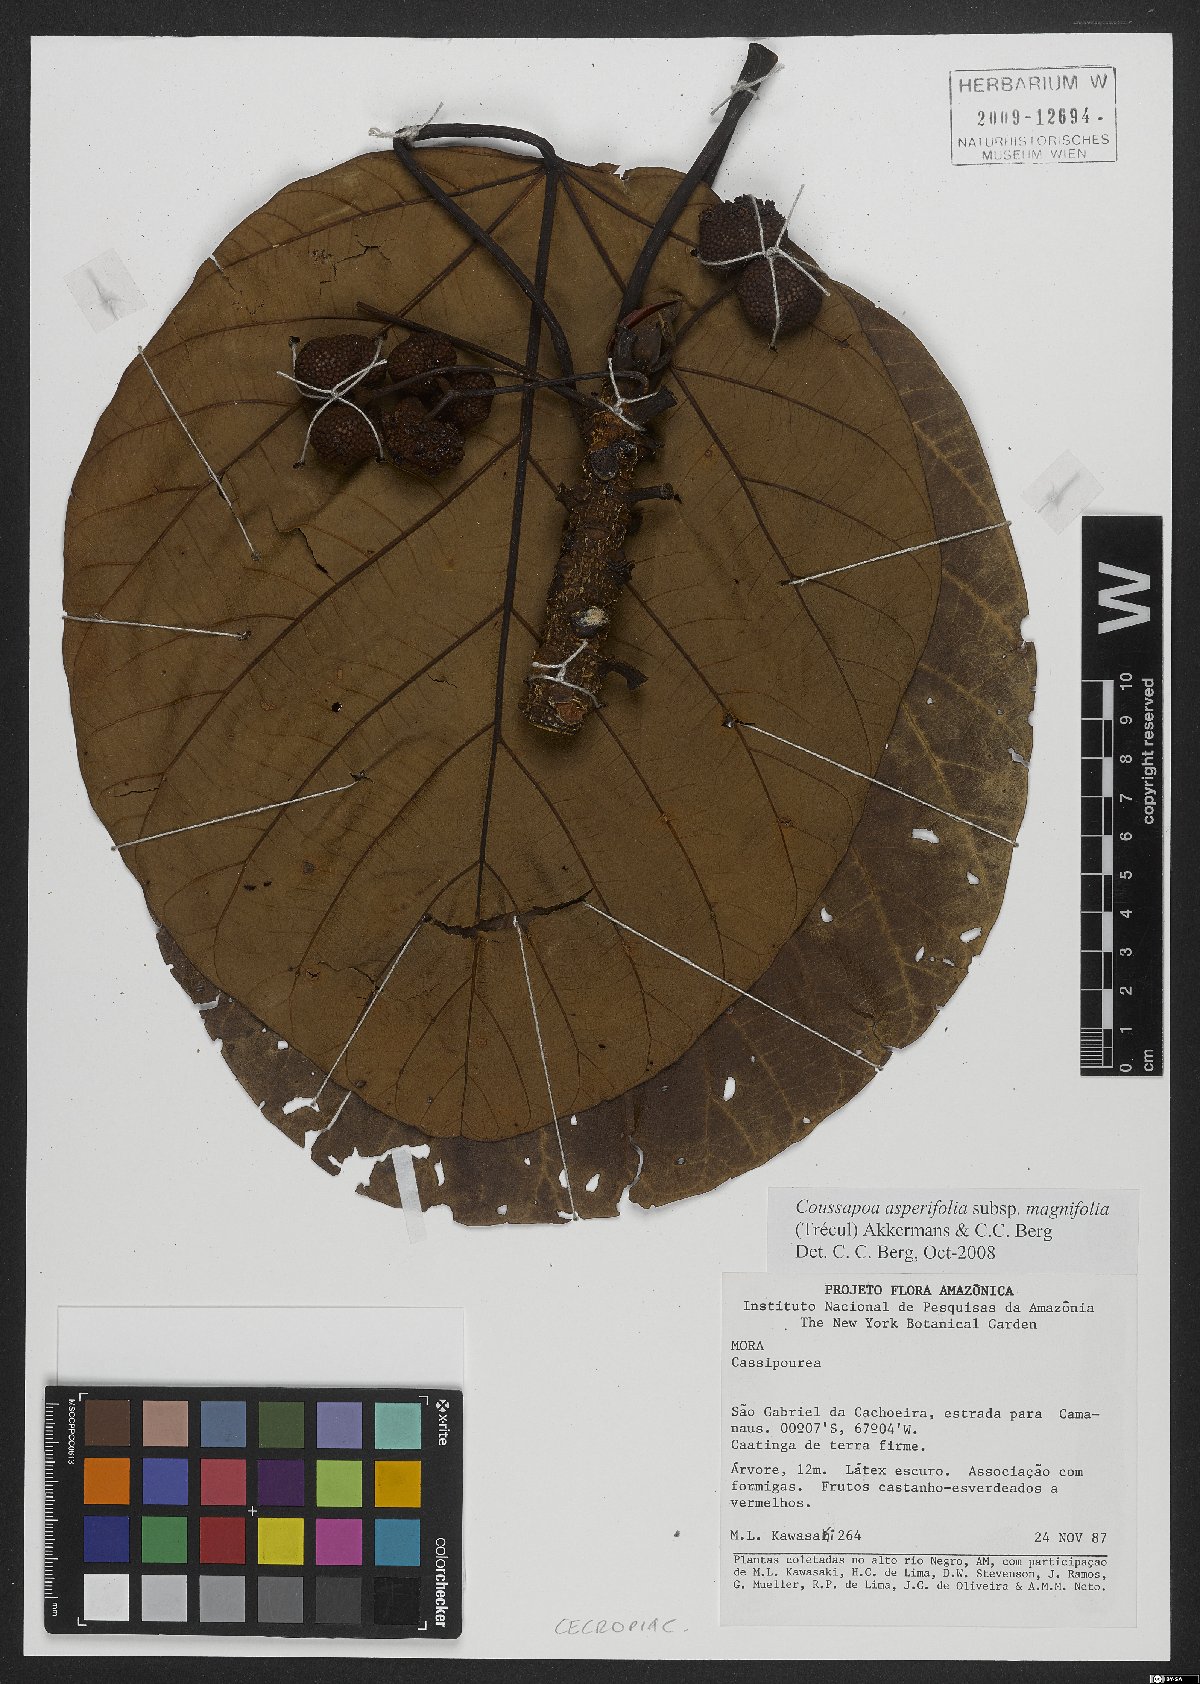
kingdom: Plantae
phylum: Tracheophyta
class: Magnoliopsida
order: Rosales
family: Urticaceae
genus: Coussapoa
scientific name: Coussapoa asperifolia
